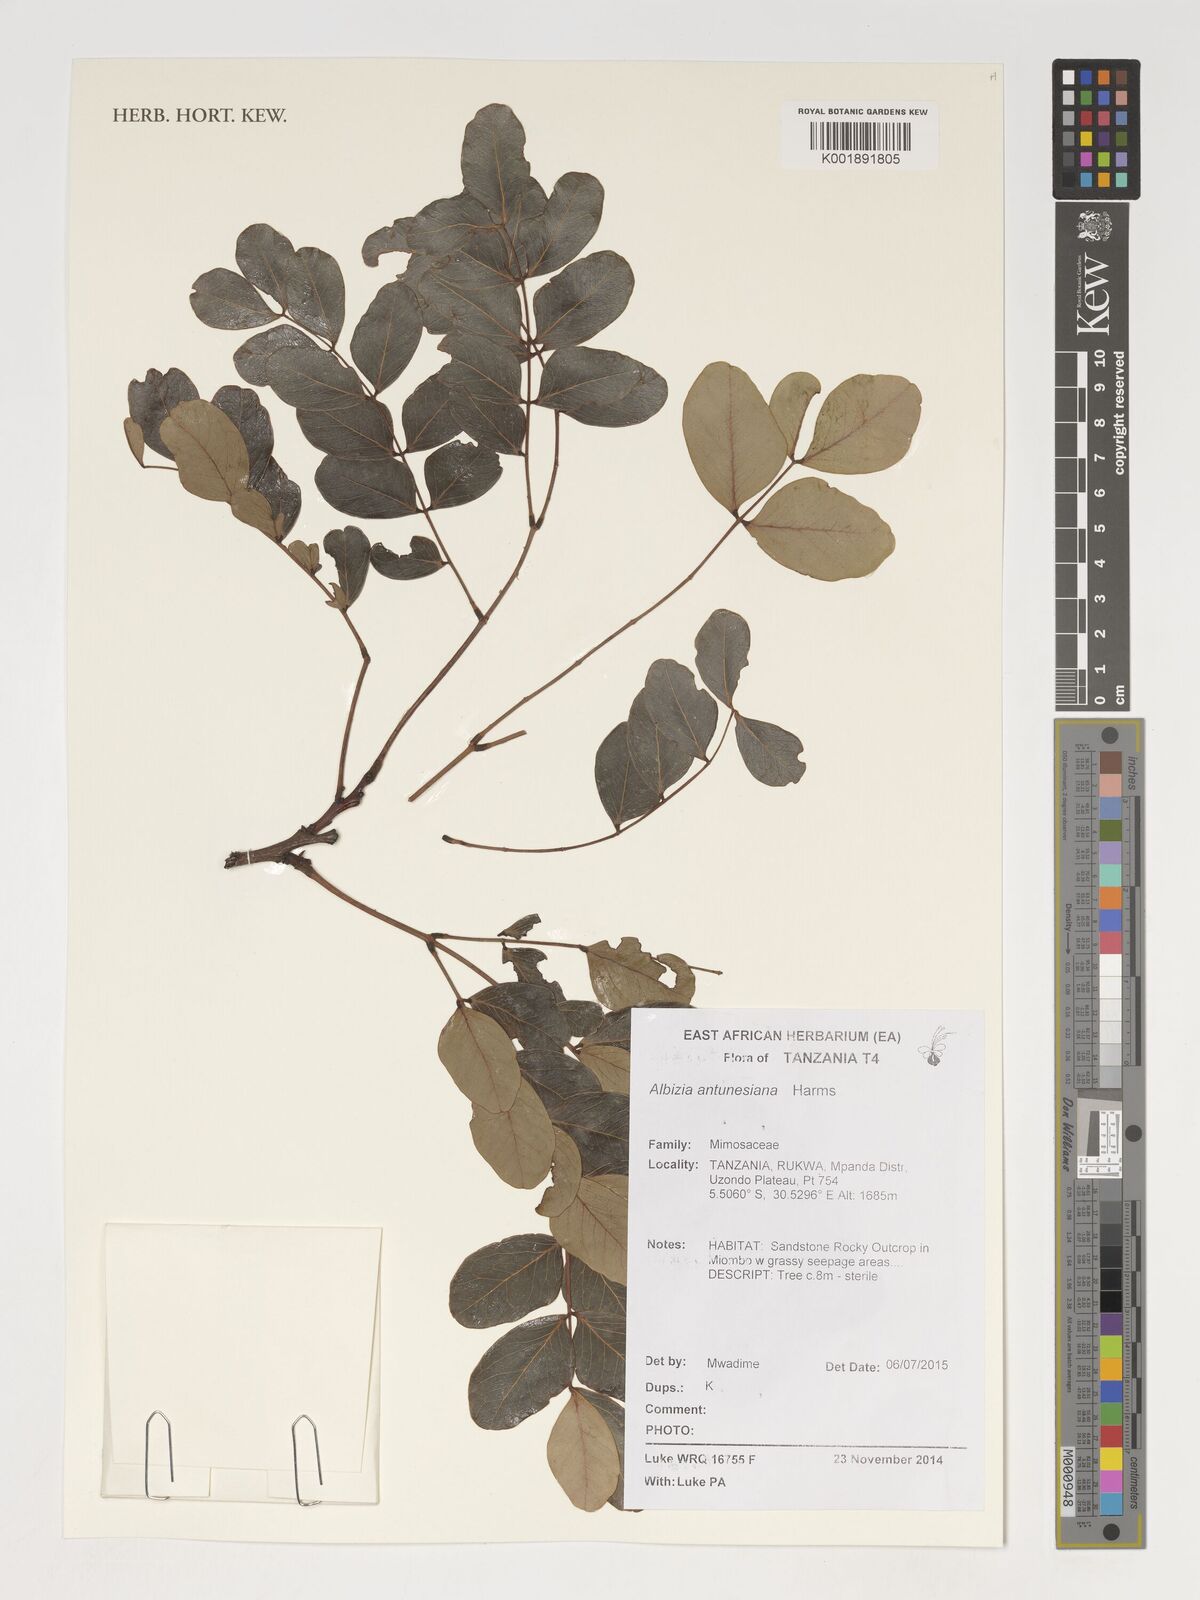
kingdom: Plantae
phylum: Tracheophyta
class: Magnoliopsida
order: Fabales
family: Fabaceae
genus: Albizia
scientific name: Albizia antunesiana
